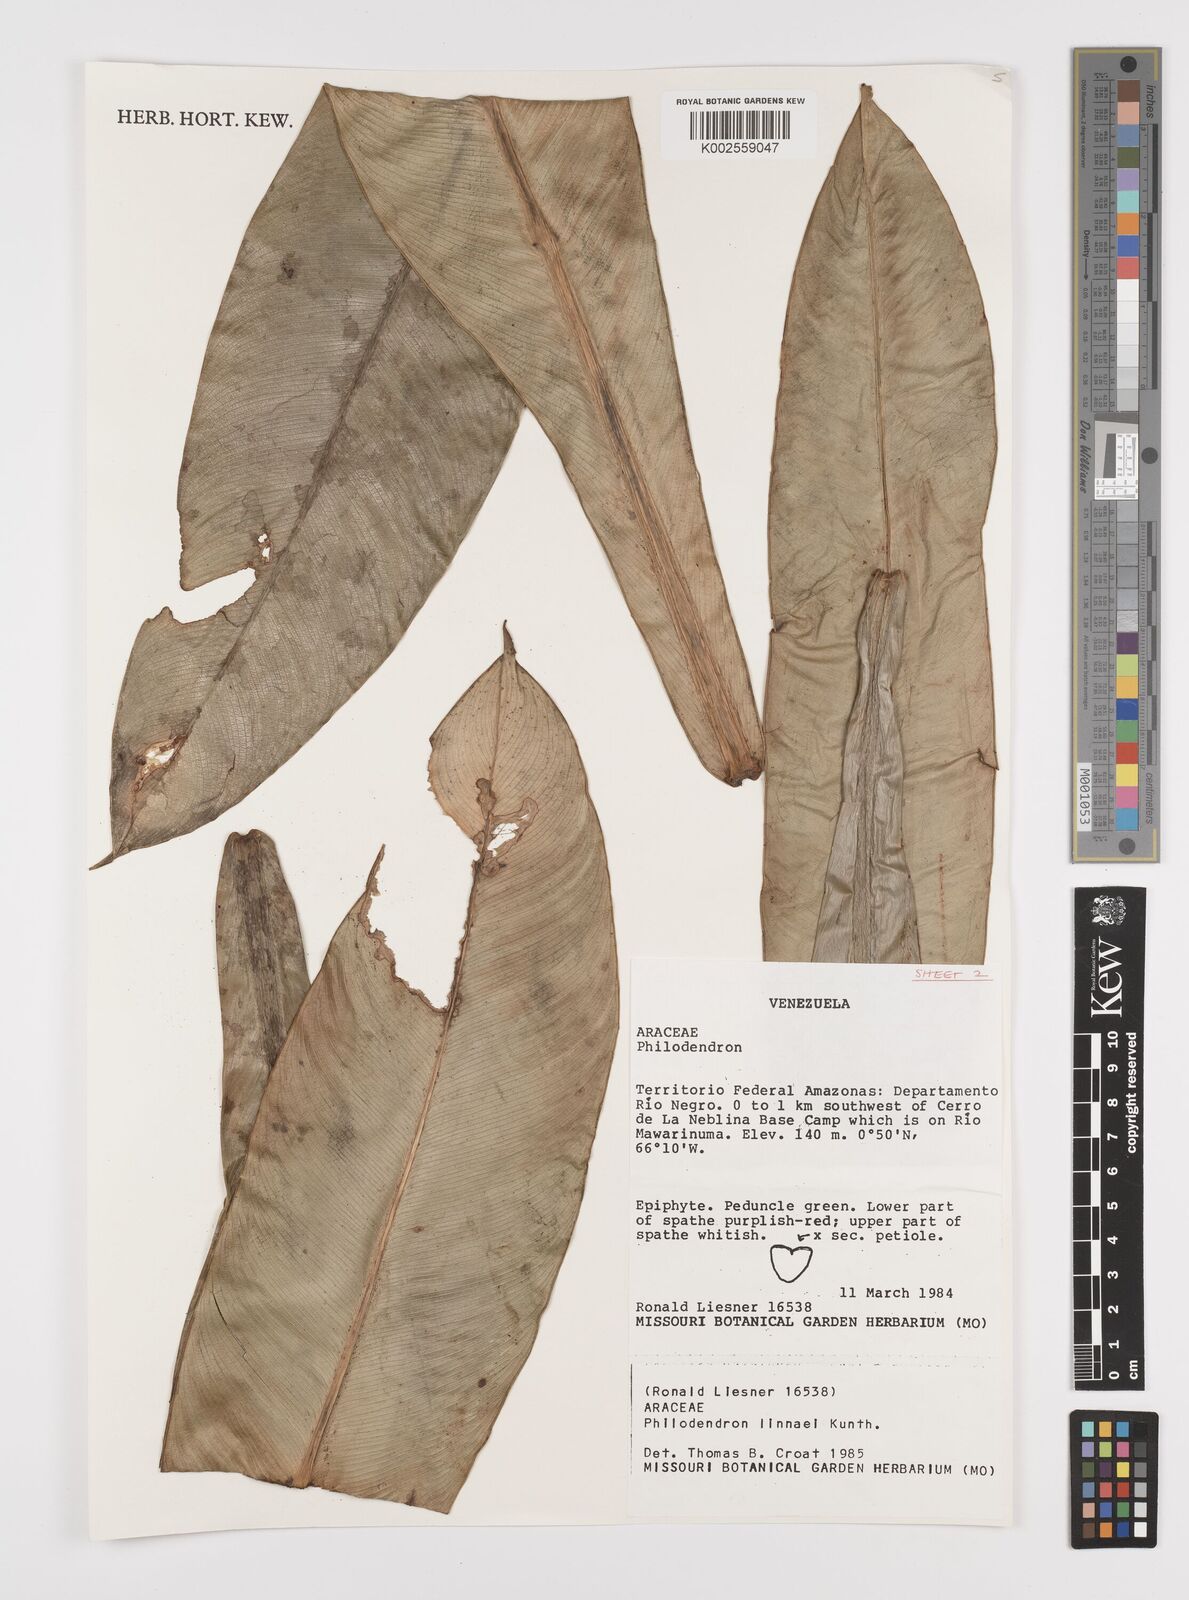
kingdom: Plantae
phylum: Tracheophyta
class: Liliopsida
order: Alismatales
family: Araceae
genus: Philodendron
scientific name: Philodendron linnaei
